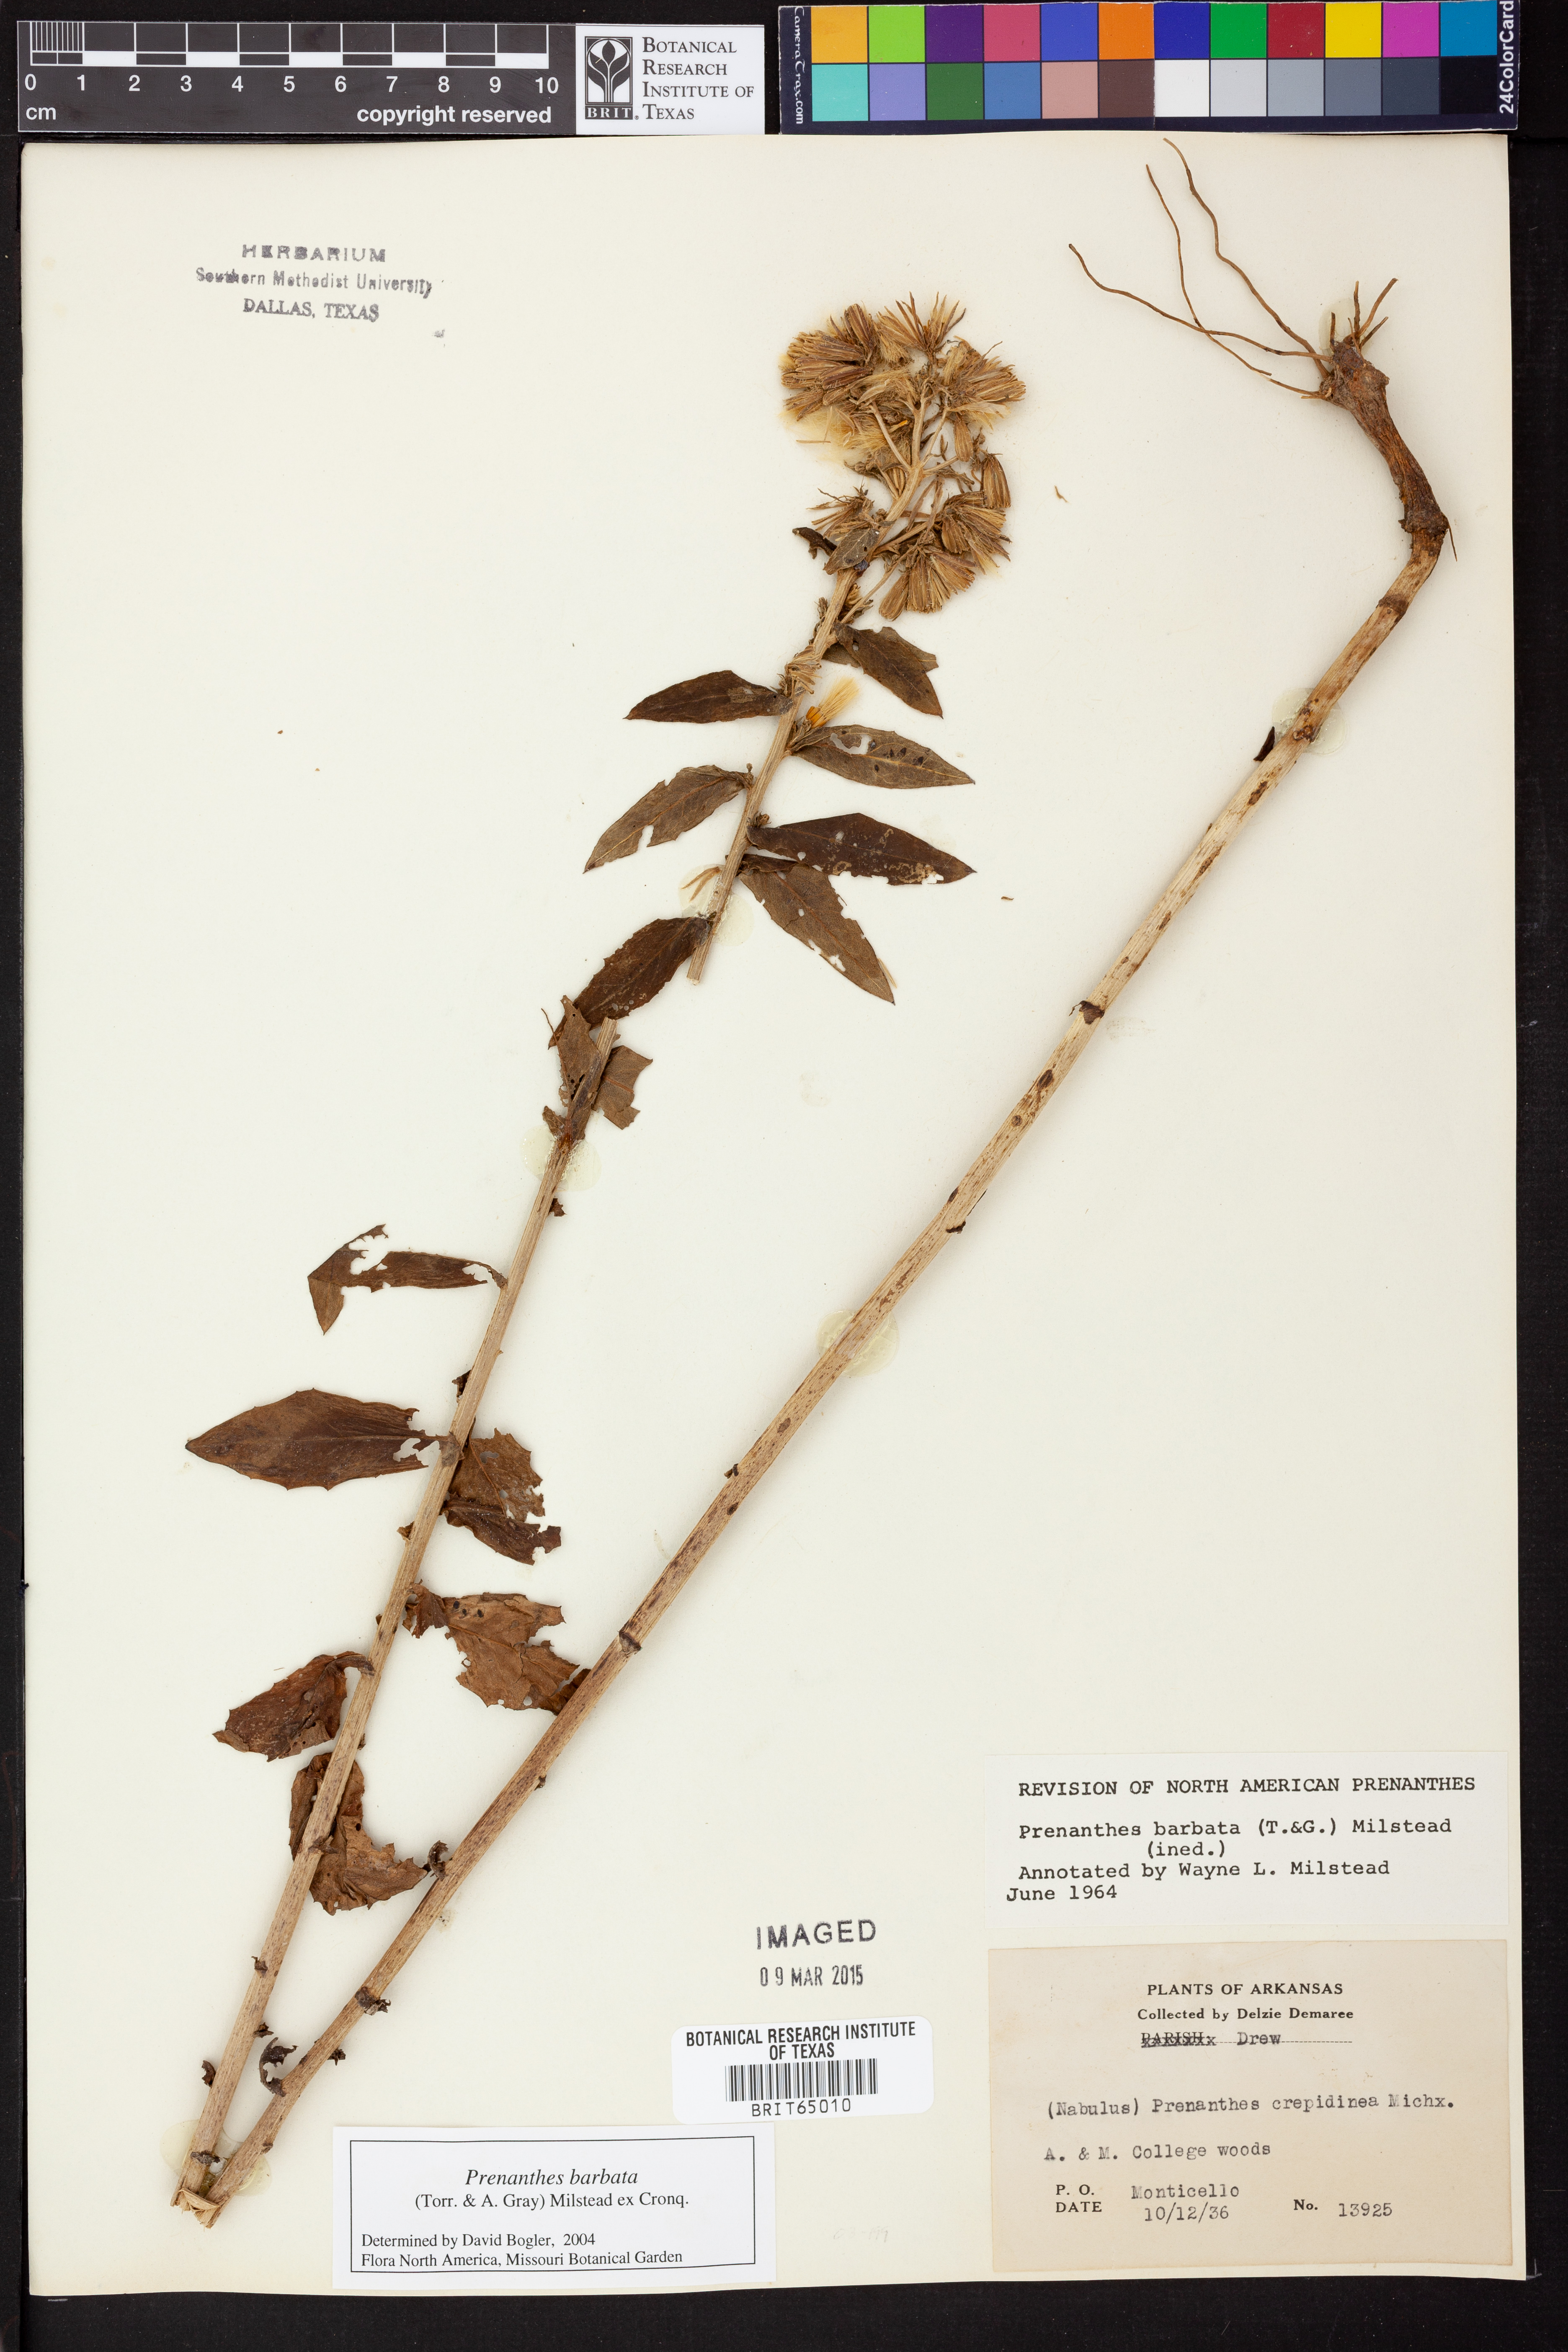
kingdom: Plantae
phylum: Tracheophyta
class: Magnoliopsida
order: Asterales
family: Asteraceae
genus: Nabalus
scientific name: Nabalus barbata
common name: Barbed rattlesnakeroot
